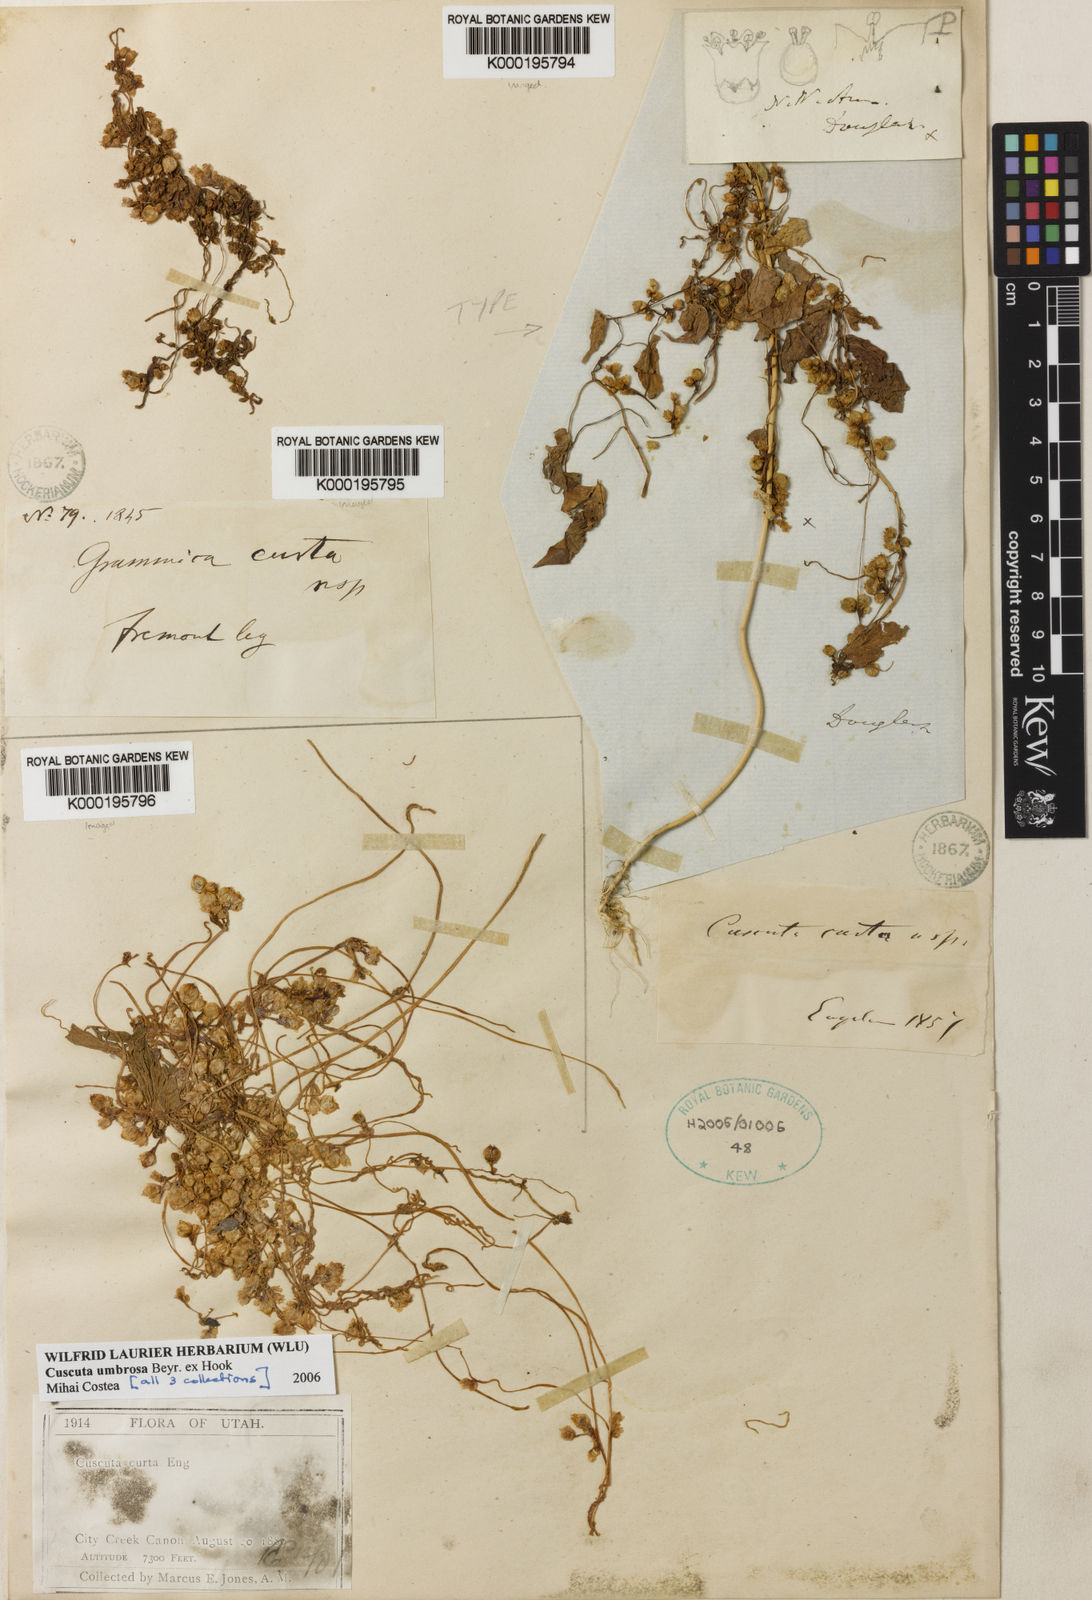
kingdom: Plantae
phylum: Tracheophyta
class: Magnoliopsida
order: Solanales
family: Convolvulaceae
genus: Cuscuta
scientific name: Cuscuta umbrosa
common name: Bigfruit dodder
